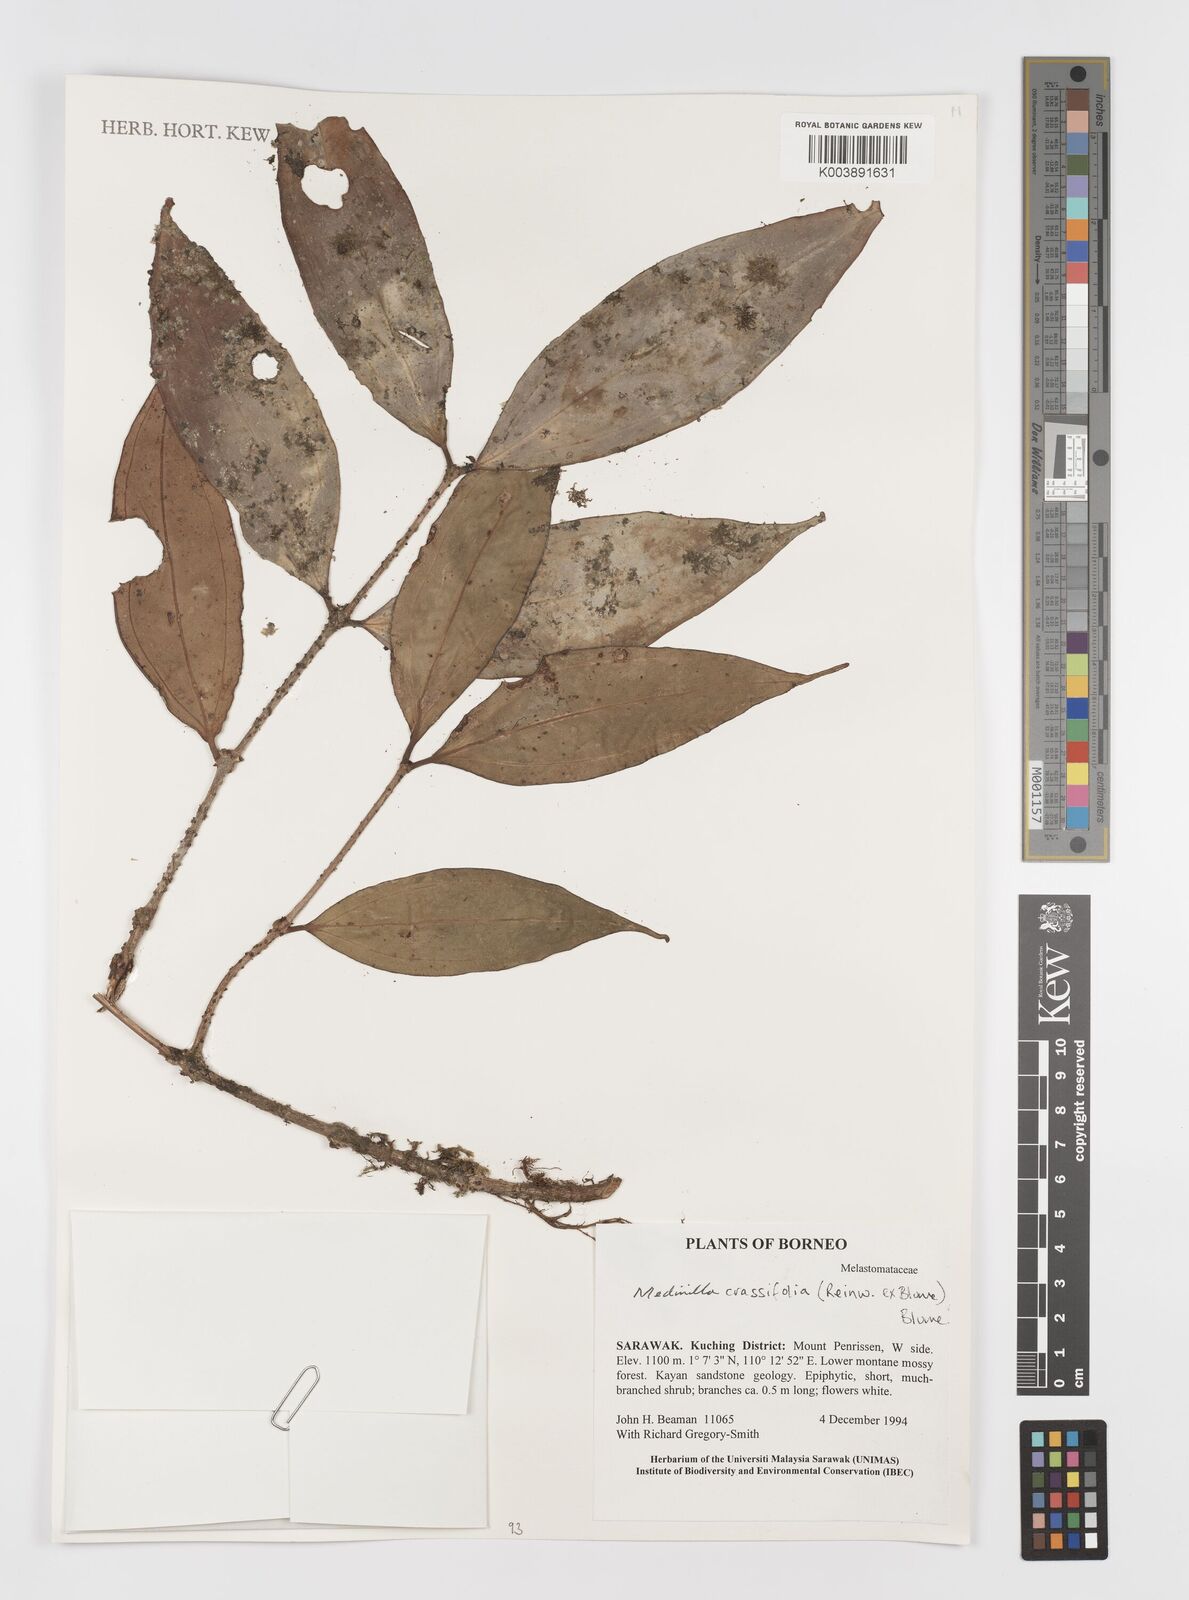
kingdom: Plantae
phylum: Tracheophyta
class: Magnoliopsida
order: Myrtales
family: Melastomataceae
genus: Medinilla
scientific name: Medinilla crassifolia
